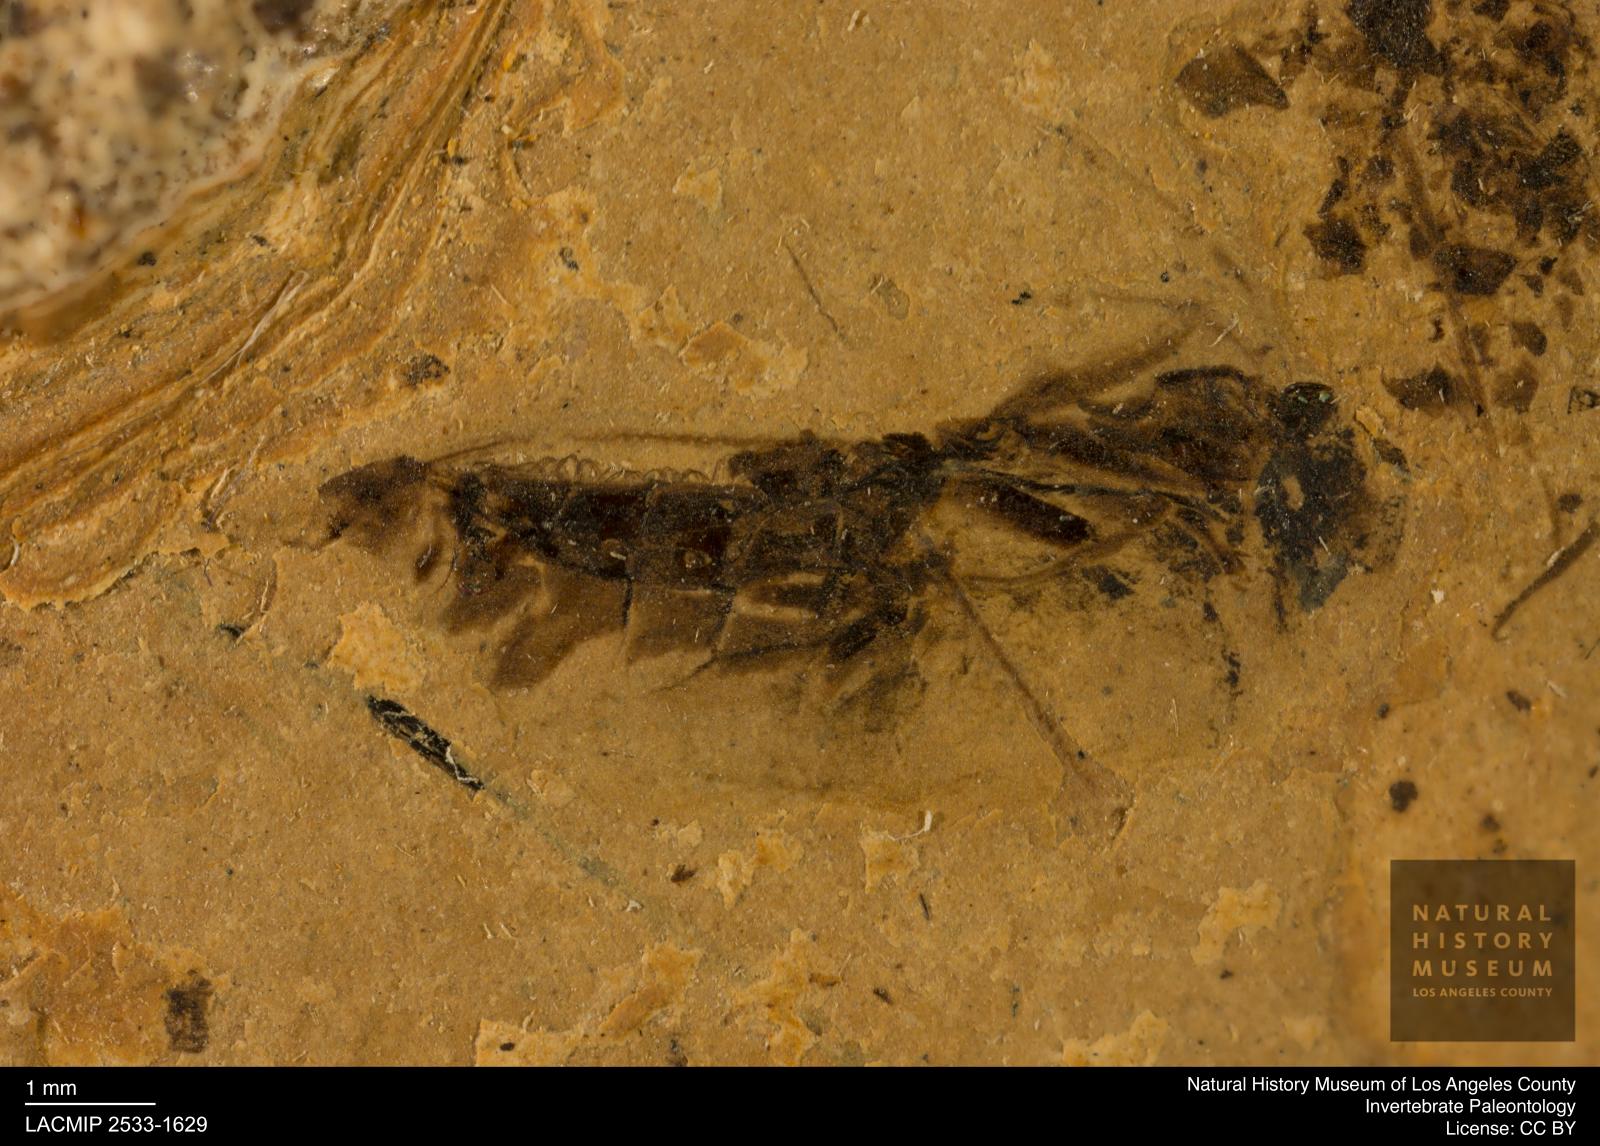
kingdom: Animalia
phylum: Arthropoda
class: Insecta
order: Hemiptera
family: Notonectidae
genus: Notonecta
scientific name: Notonecta
